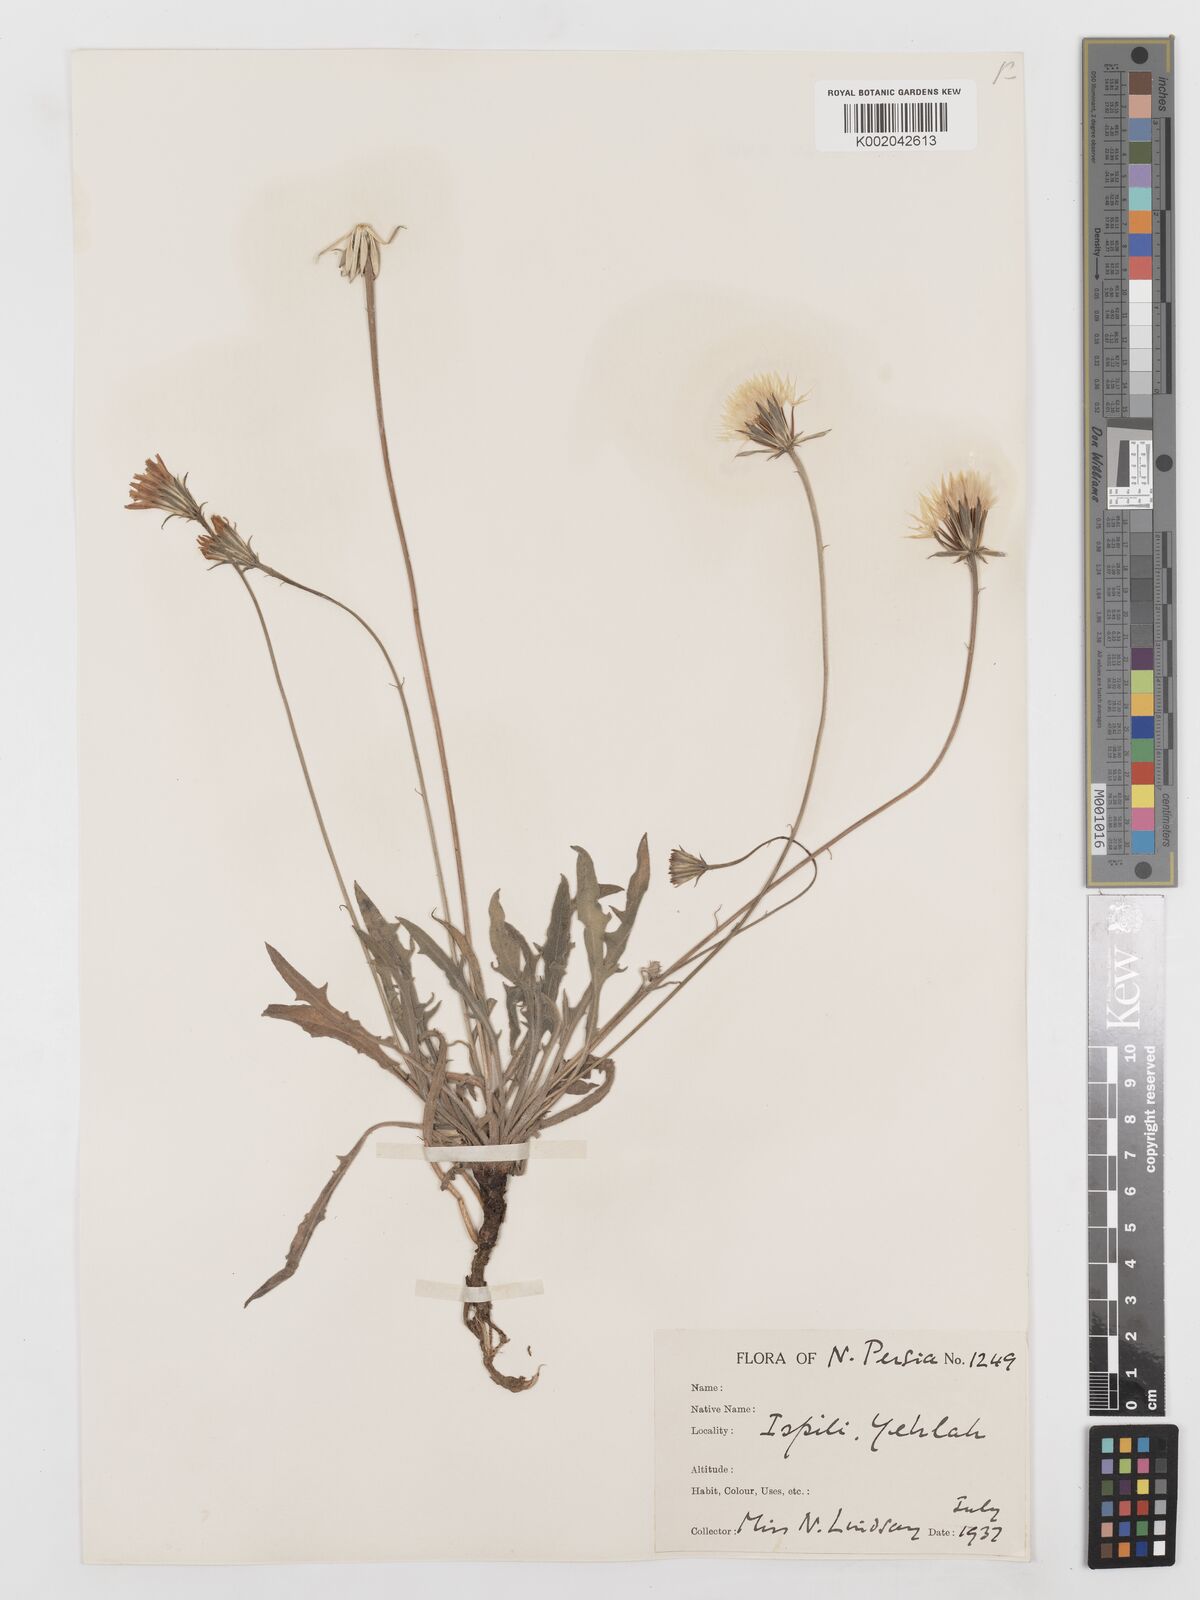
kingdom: Plantae
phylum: Tracheophyta
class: Magnoliopsida
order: Asterales
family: Asteraceae
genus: Leontodon
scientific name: Leontodon
